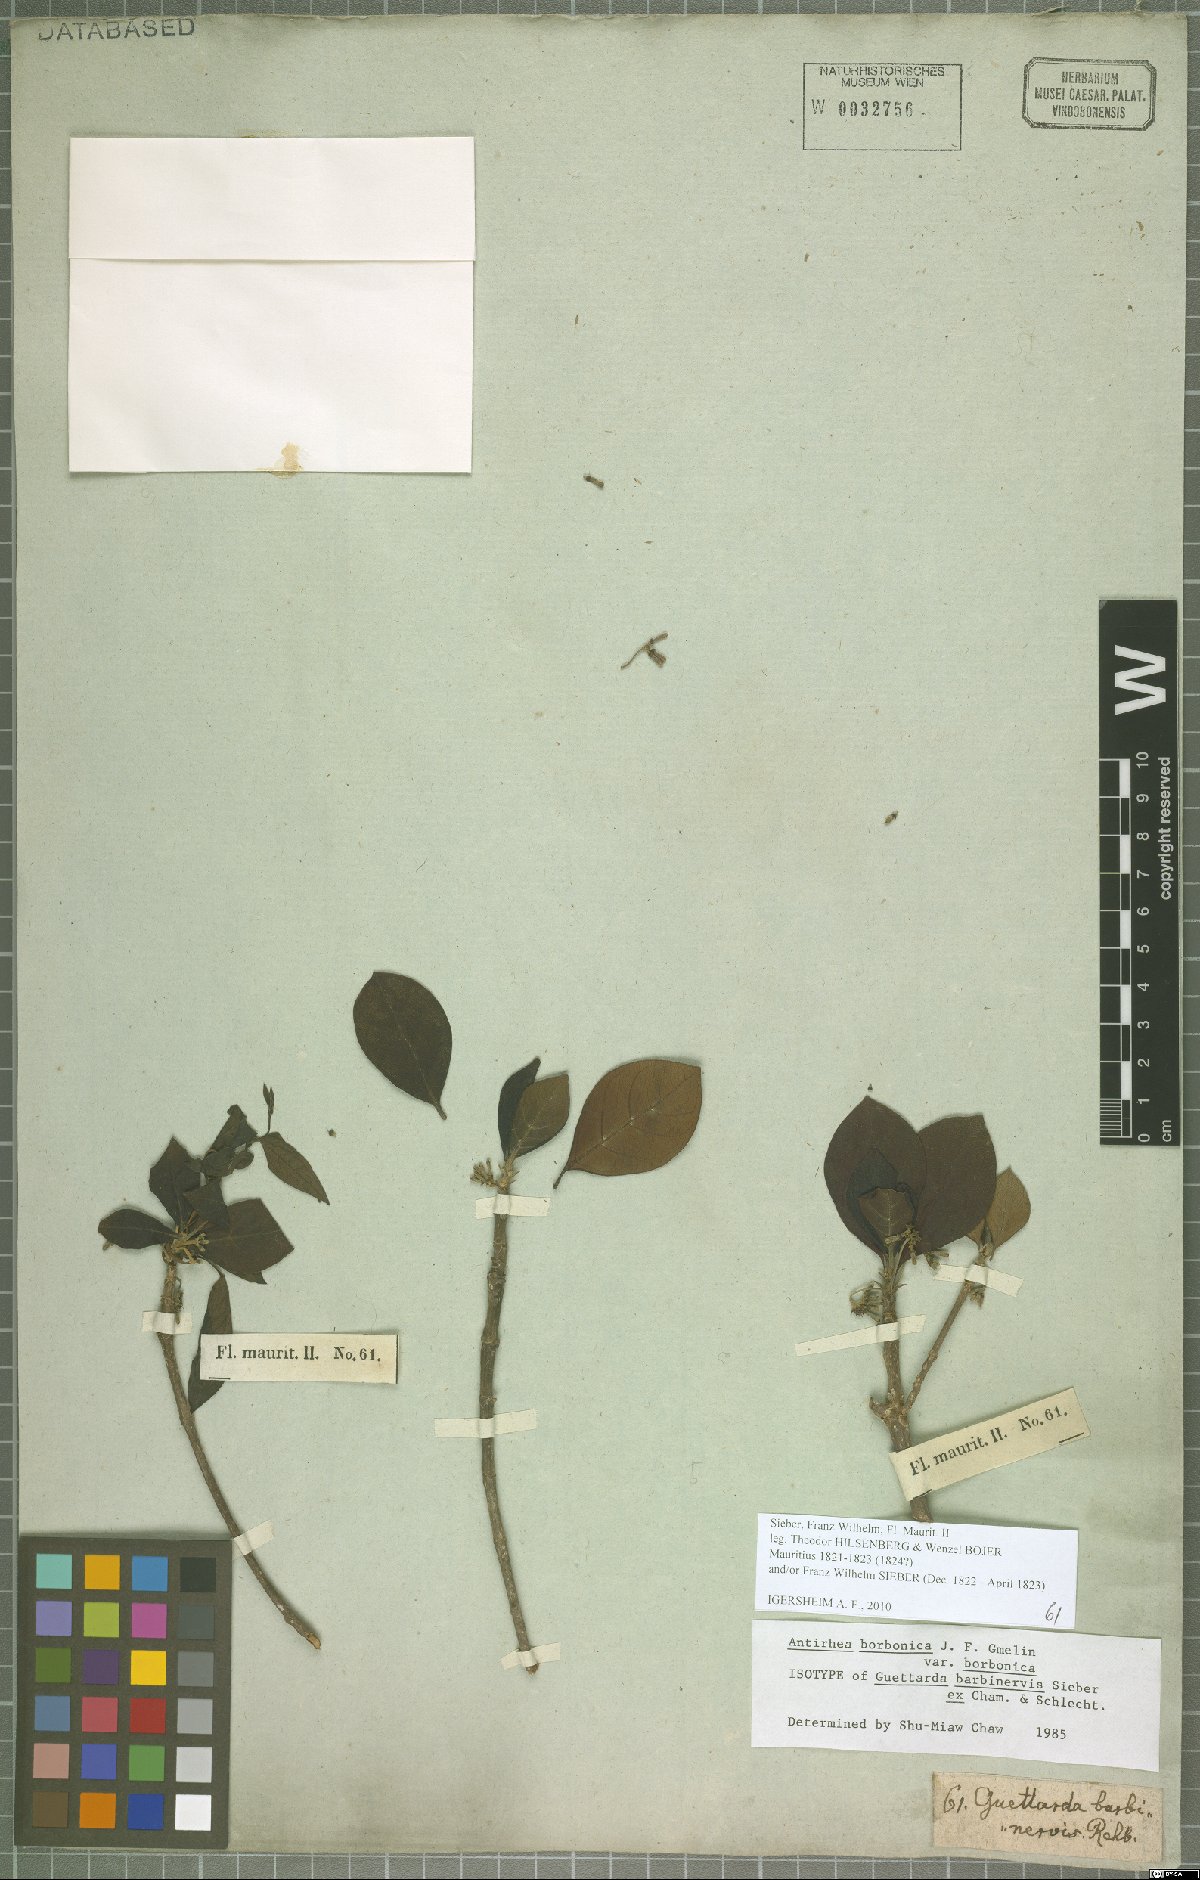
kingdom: Plantae
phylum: Tracheophyta
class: Magnoliopsida
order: Gentianales
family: Rubiaceae
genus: Antirhea
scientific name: Antirhea borbonica
